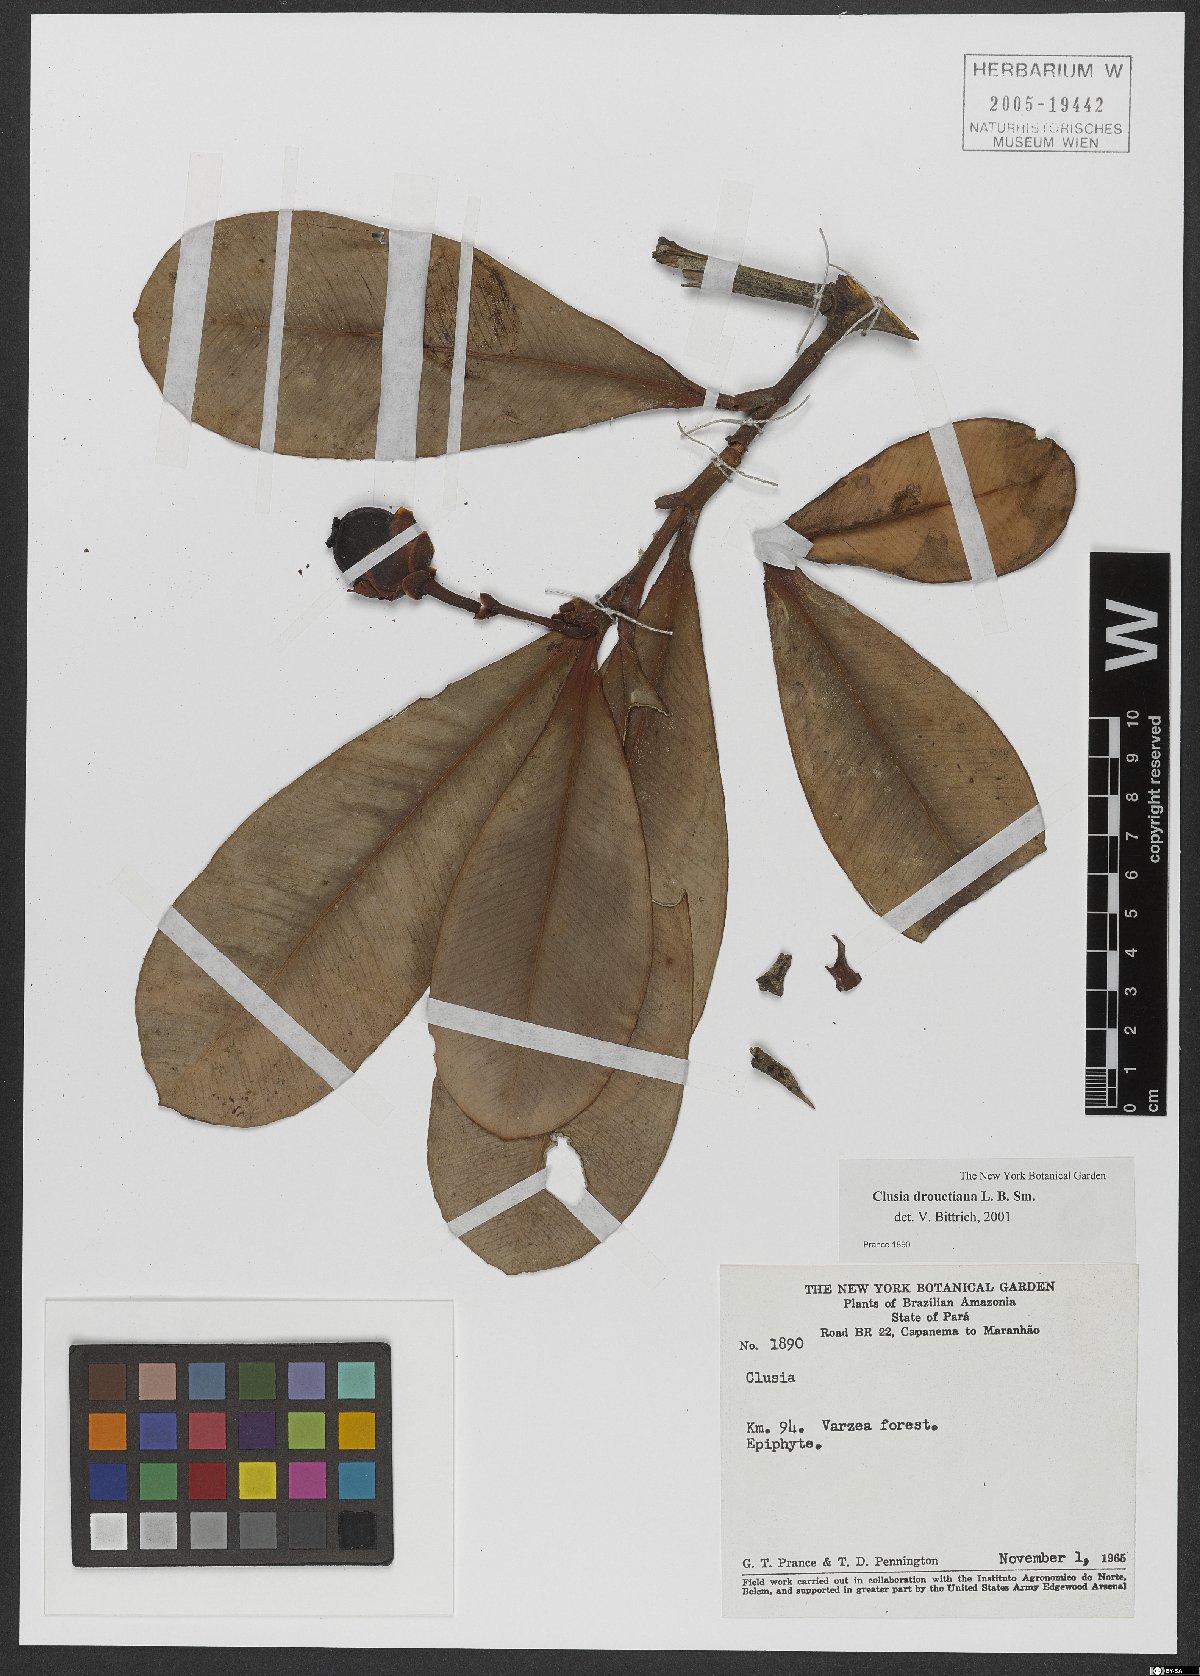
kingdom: Plantae
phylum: Tracheophyta
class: Magnoliopsida
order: Malpighiales
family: Clusiaceae
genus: Clusia
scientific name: Clusia drouetiana
